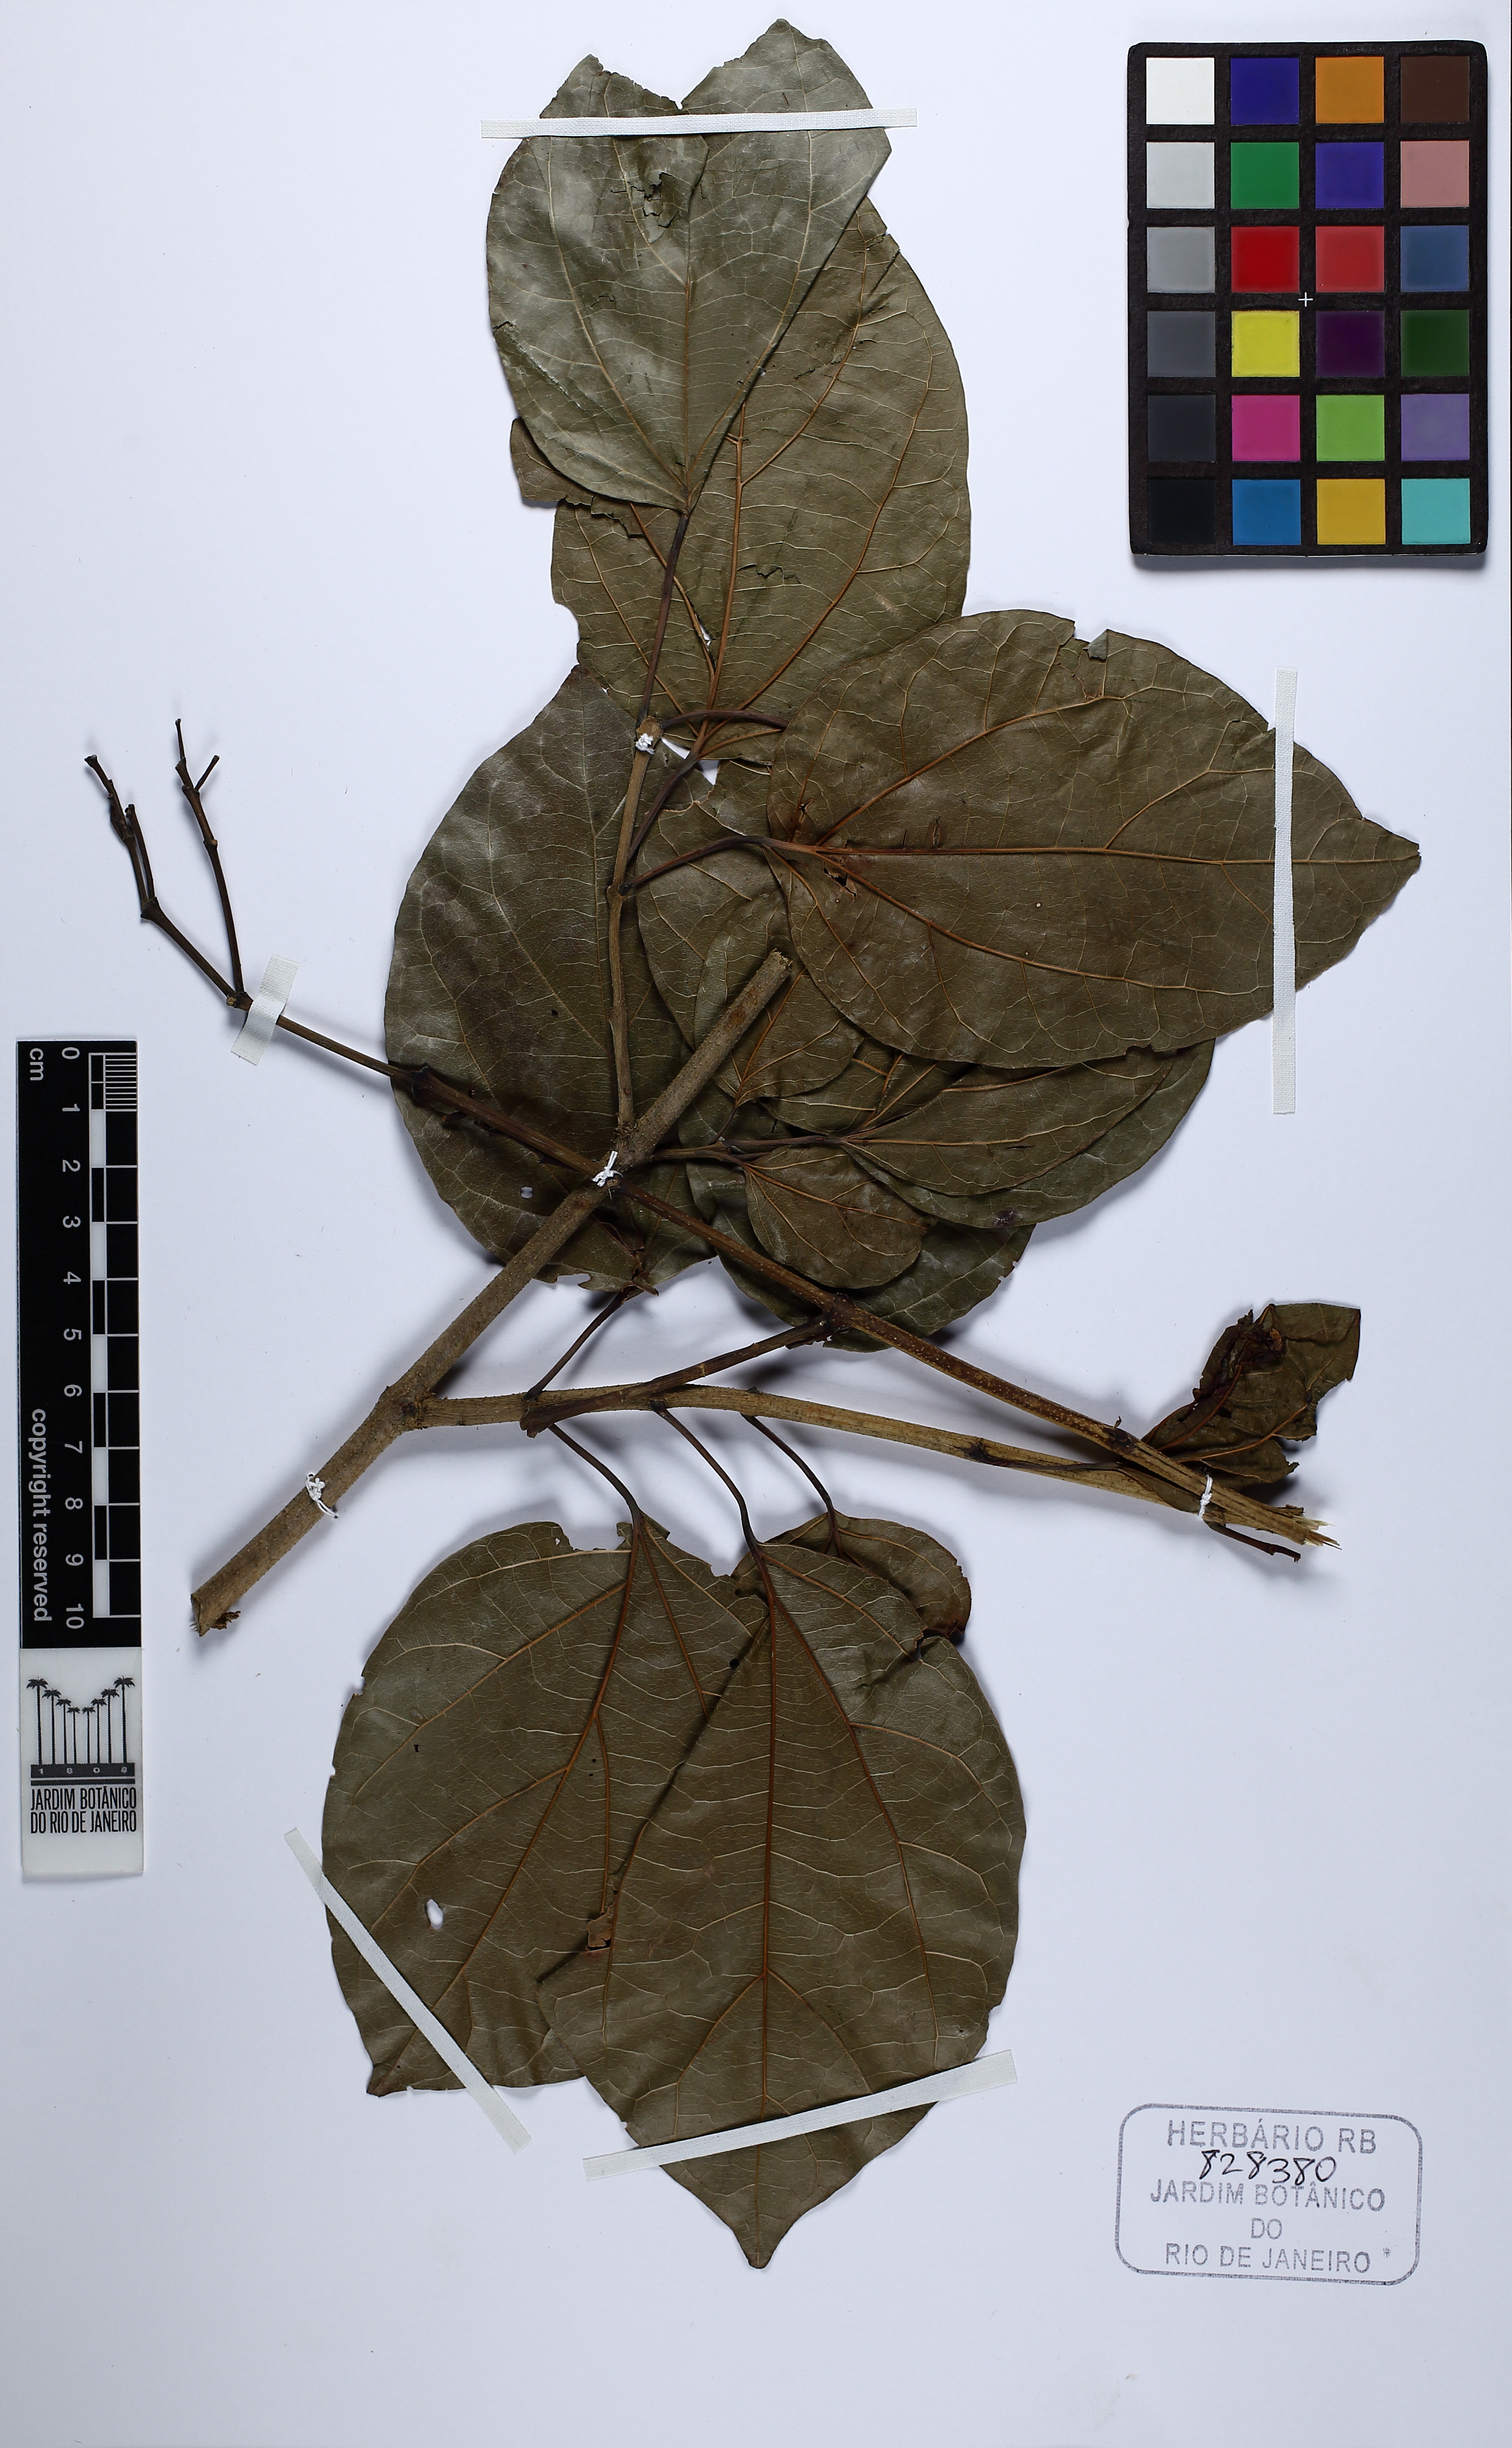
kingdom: Plantae
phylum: Tracheophyta
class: Magnoliopsida
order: Lamiales
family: Bignoniaceae
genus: Fridericia
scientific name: Fridericia platyphylla
